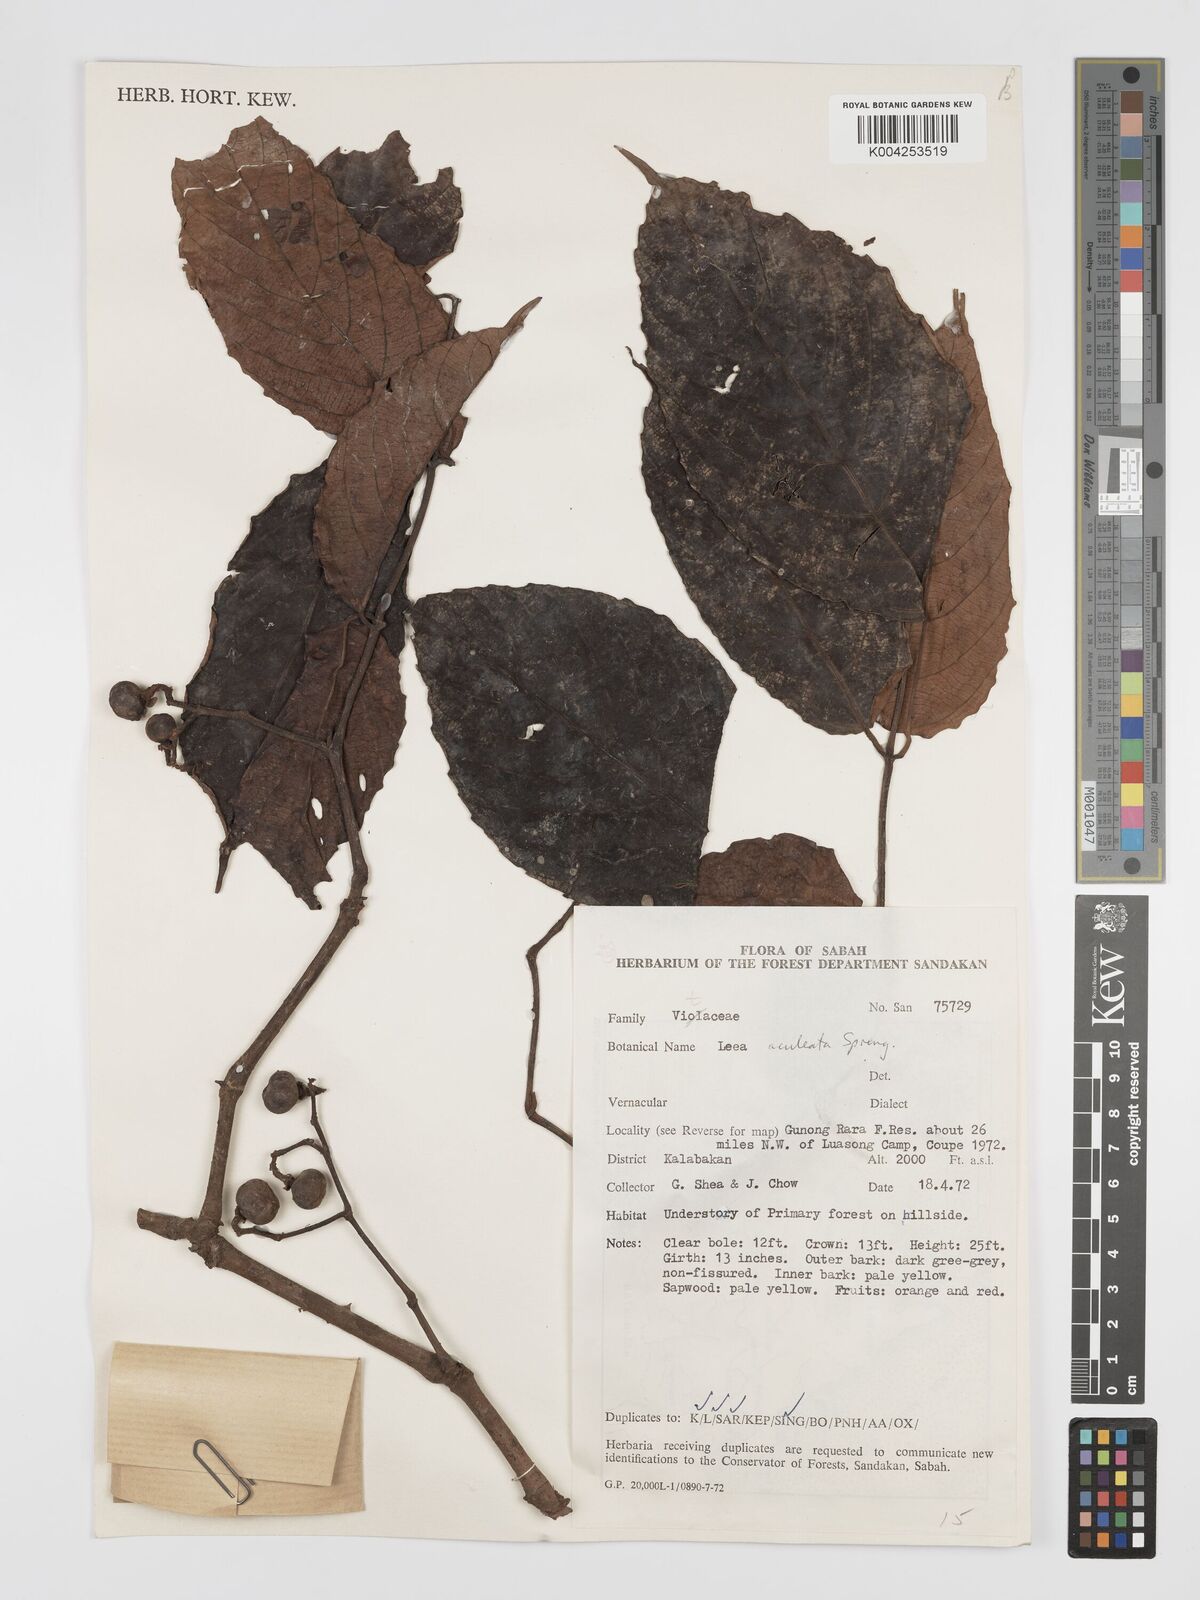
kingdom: Plantae
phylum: Tracheophyta
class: Magnoliopsida
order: Vitales
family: Vitaceae
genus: Leea
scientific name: Leea aculeata
